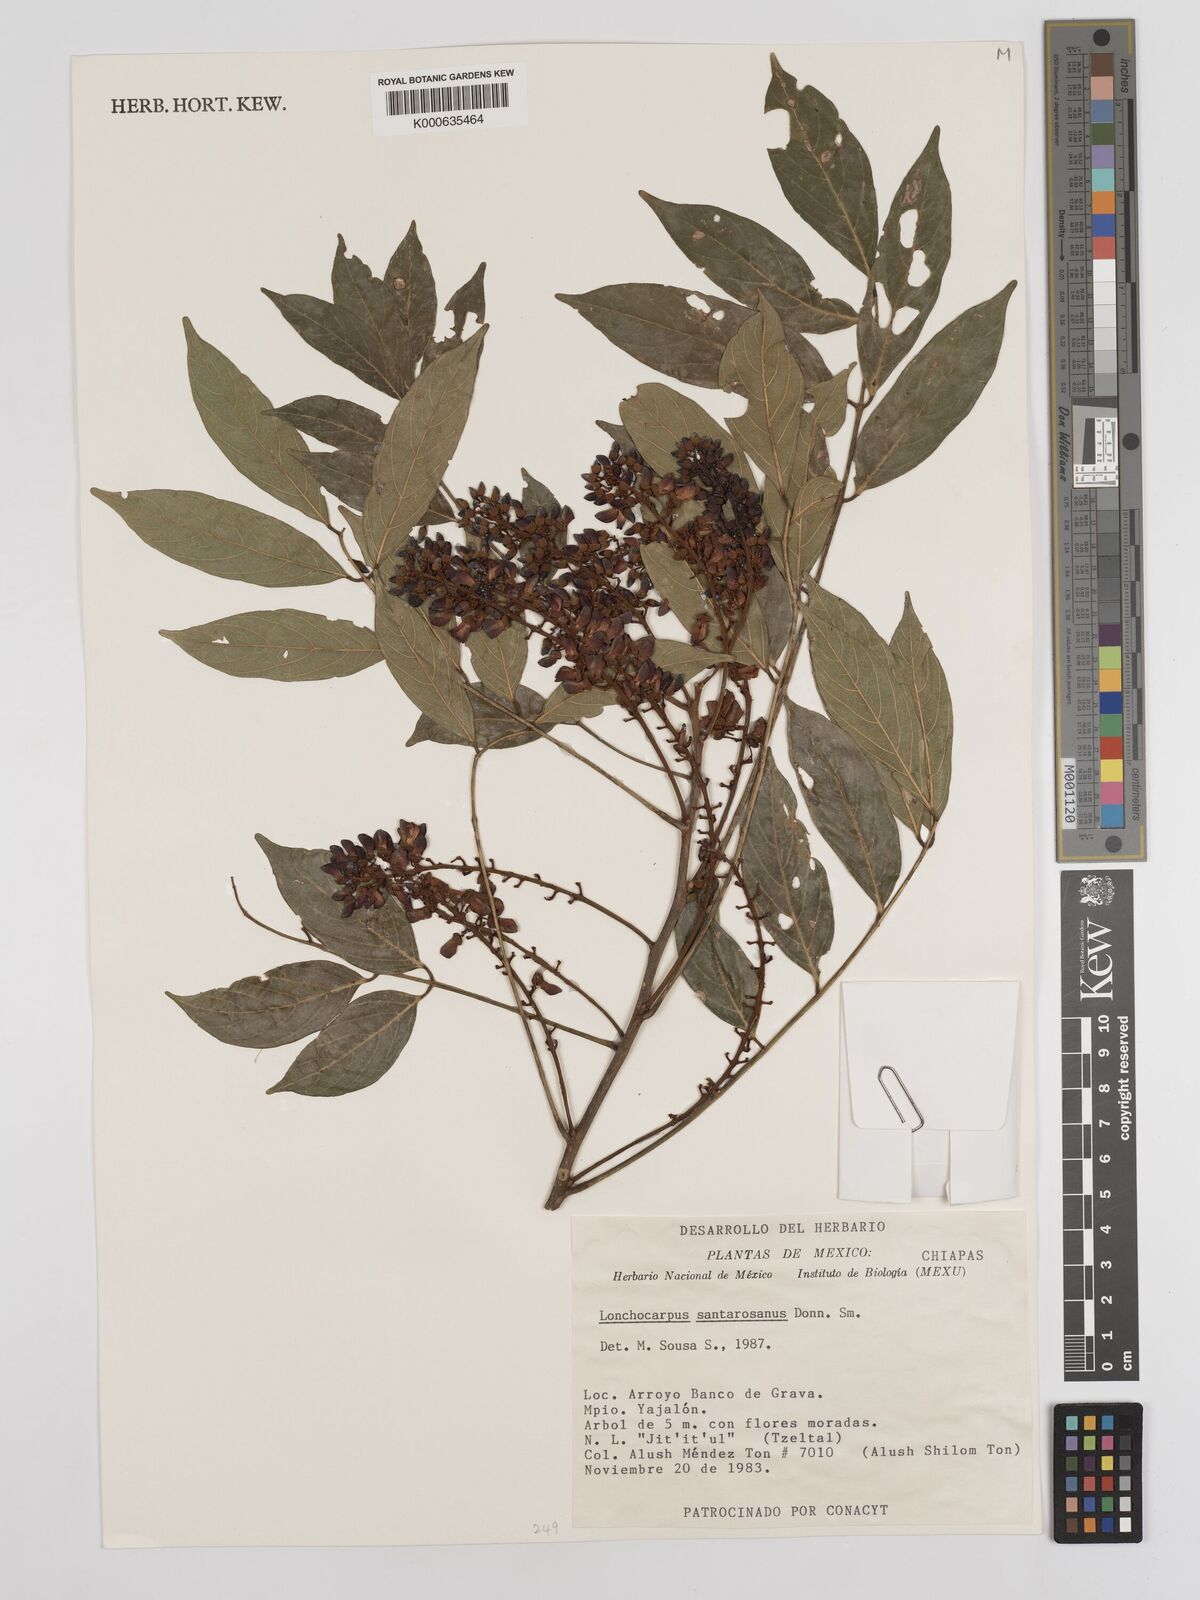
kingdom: Plantae
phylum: Tracheophyta
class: Magnoliopsida
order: Fabales
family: Fabaceae
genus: Lonchocarpus
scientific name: Lonchocarpus santarosanus
